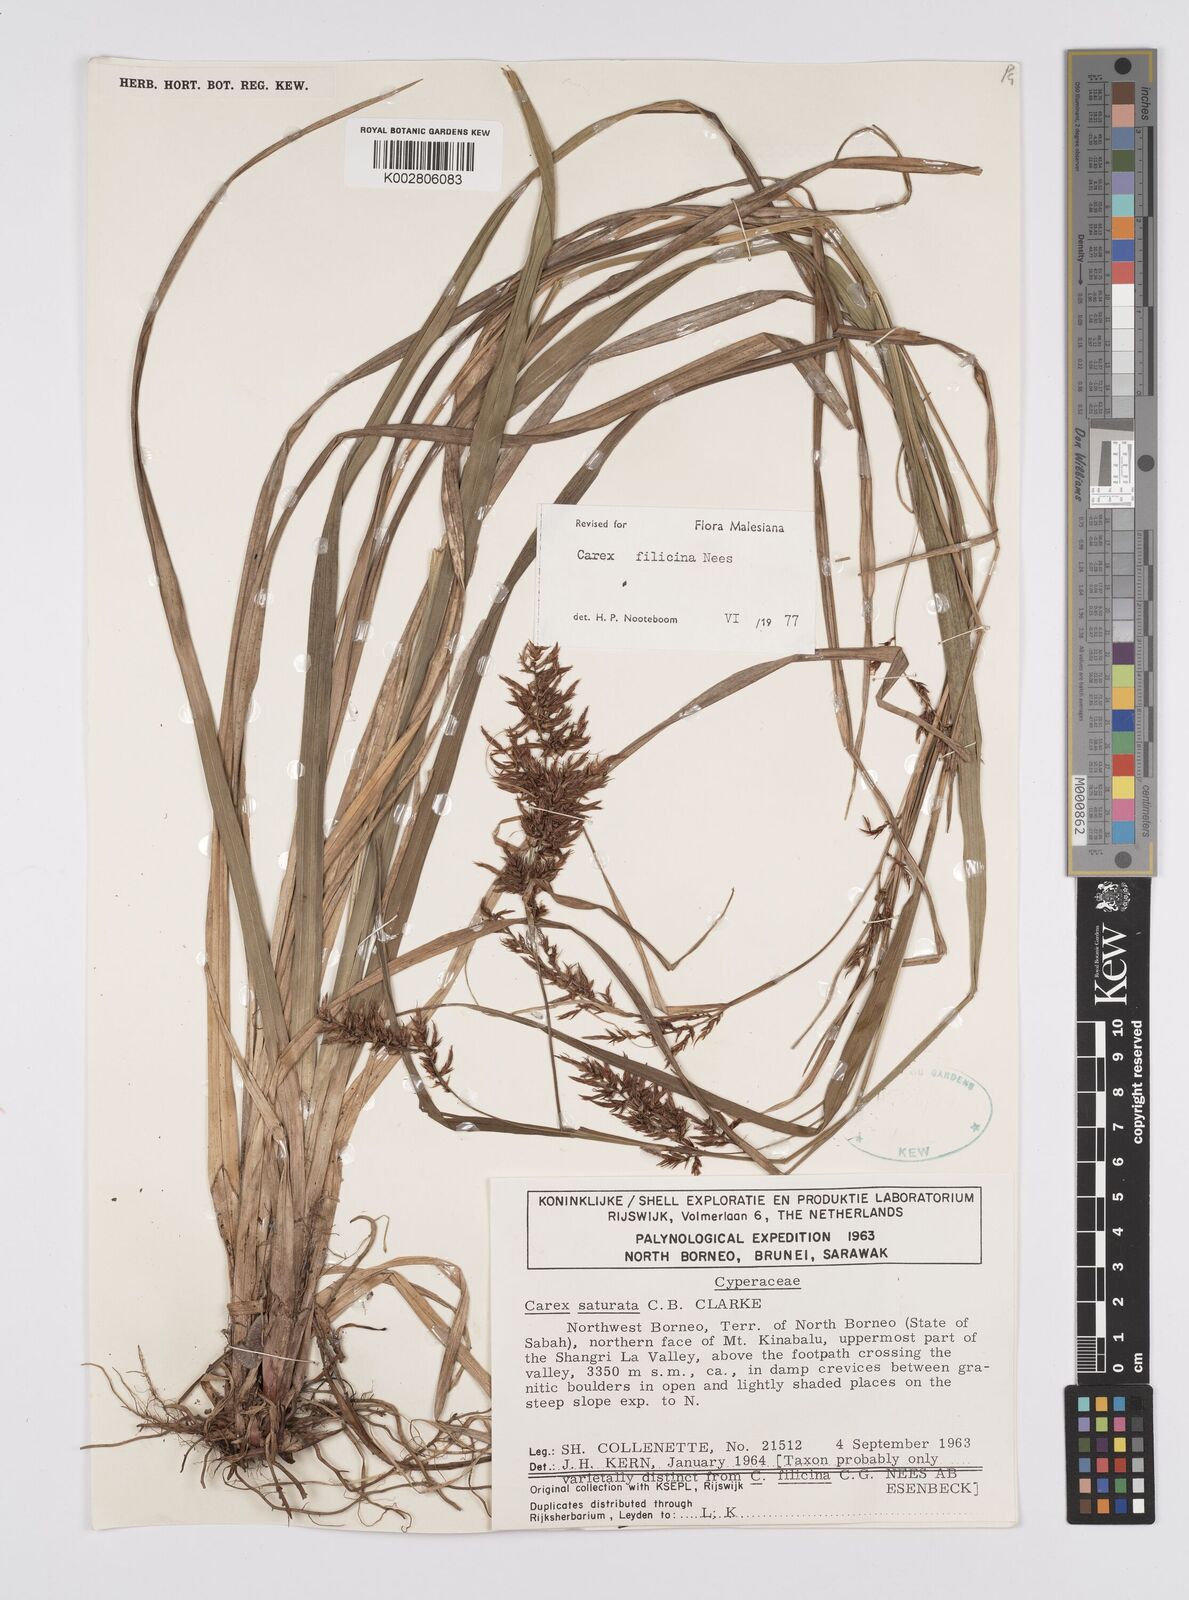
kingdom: Plantae
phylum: Tracheophyta
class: Liliopsida
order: Poales
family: Cyperaceae
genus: Carex
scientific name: Carex filicina
